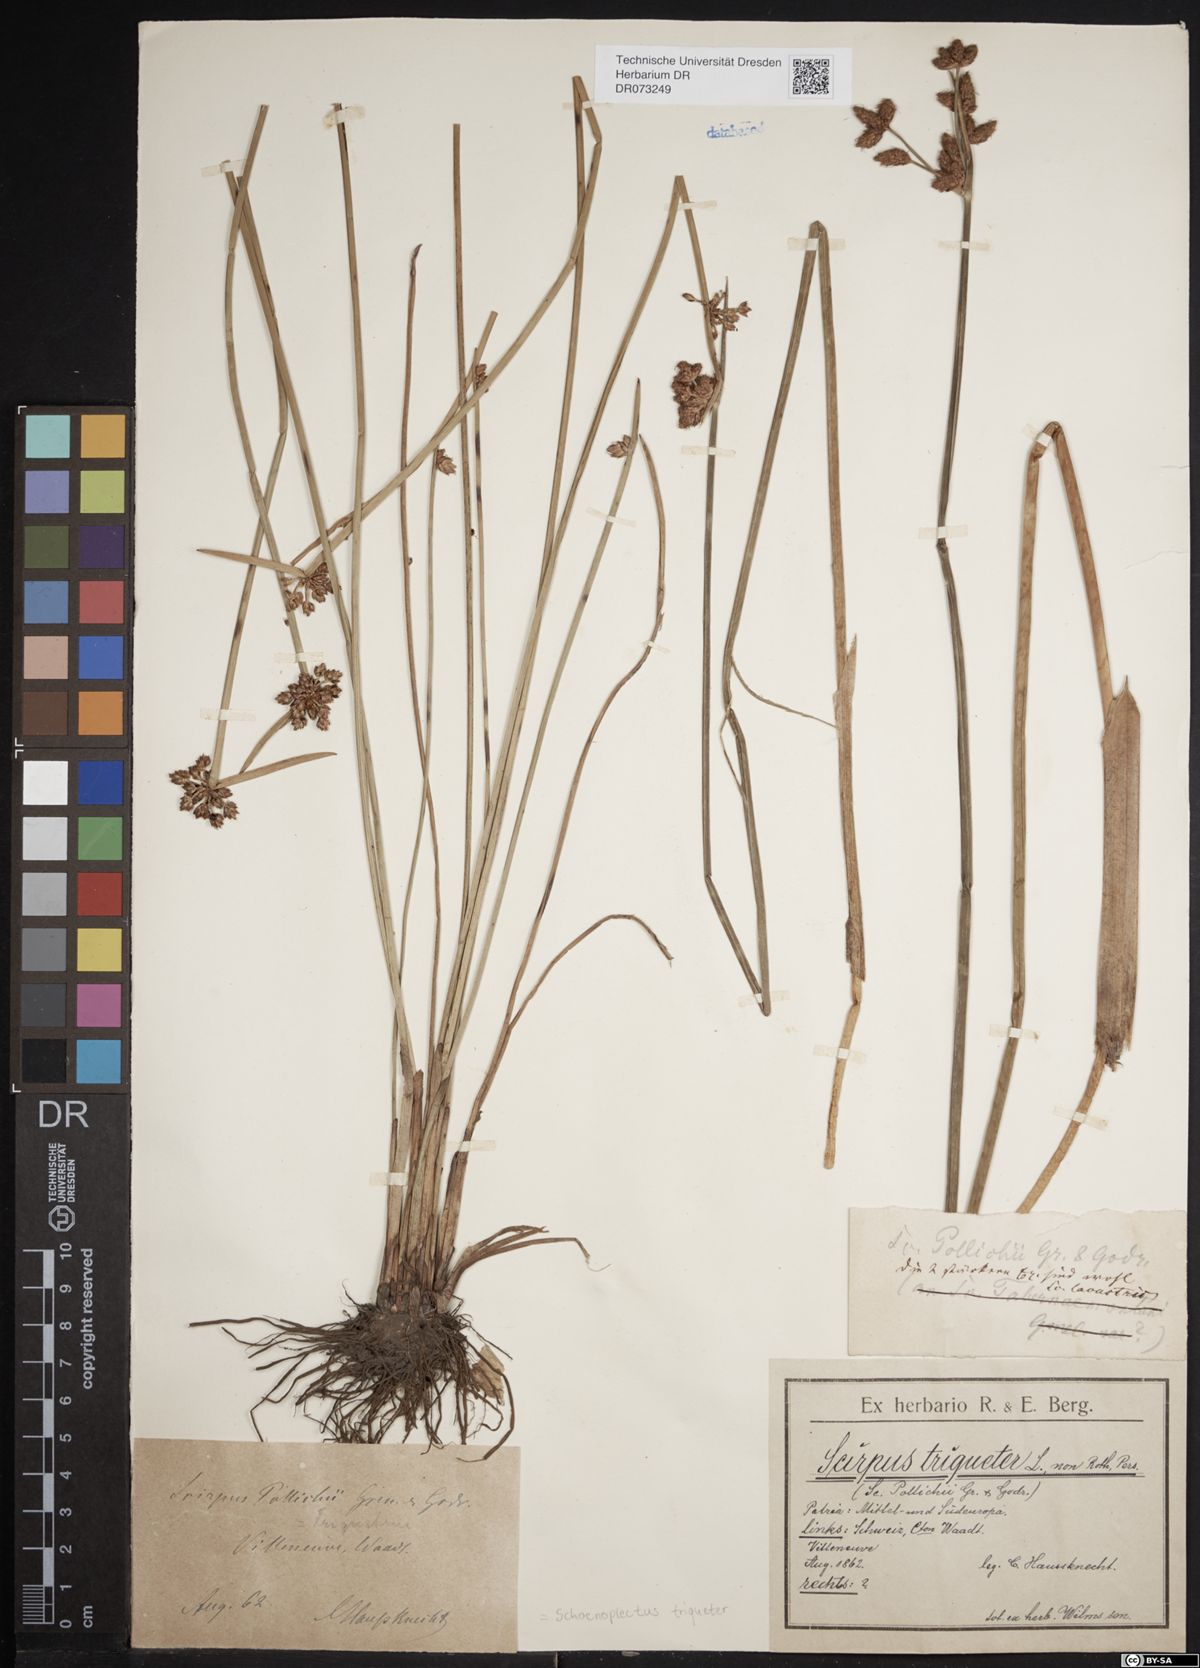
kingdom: Plantae
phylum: Tracheophyta
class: Liliopsida
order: Poales
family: Cyperaceae
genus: Schoenoplectus
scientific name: Schoenoplectus triqueter
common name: Triangular club-rush
